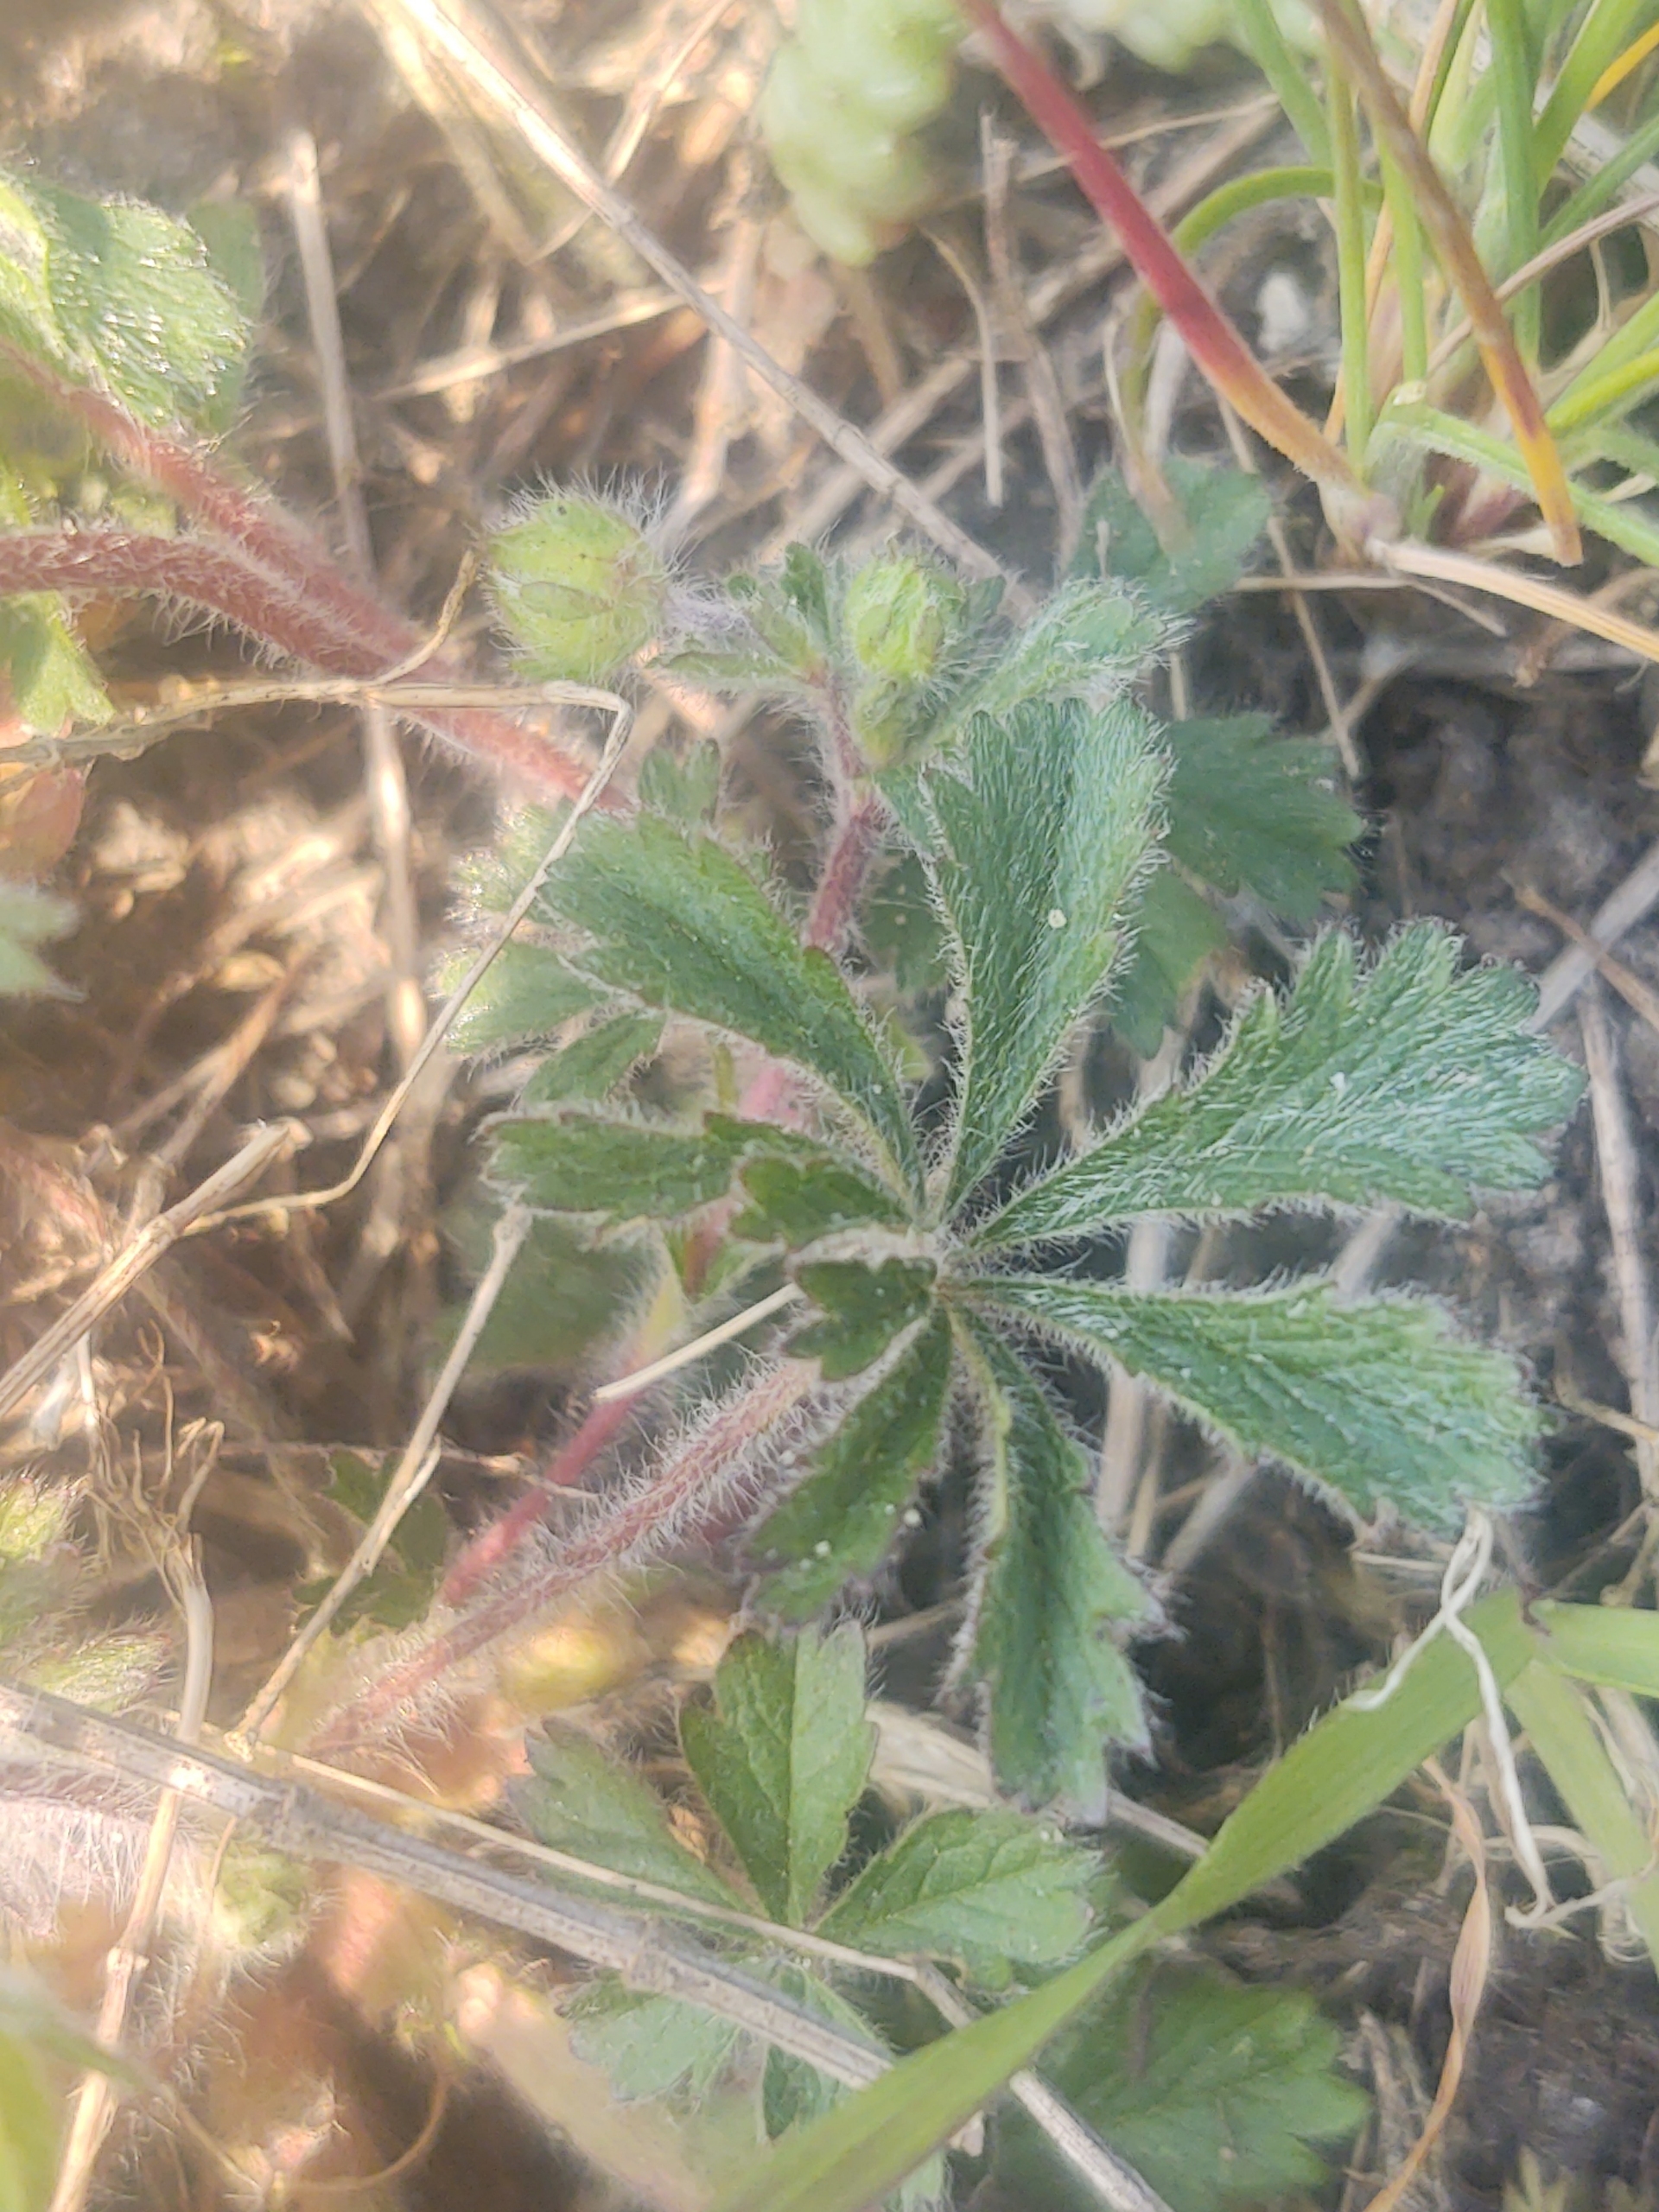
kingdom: Plantae
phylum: Tracheophyta
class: Magnoliopsida
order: Rosales
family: Rosaceae
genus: Potentilla
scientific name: Potentilla heptaphylla
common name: Mat potentil
